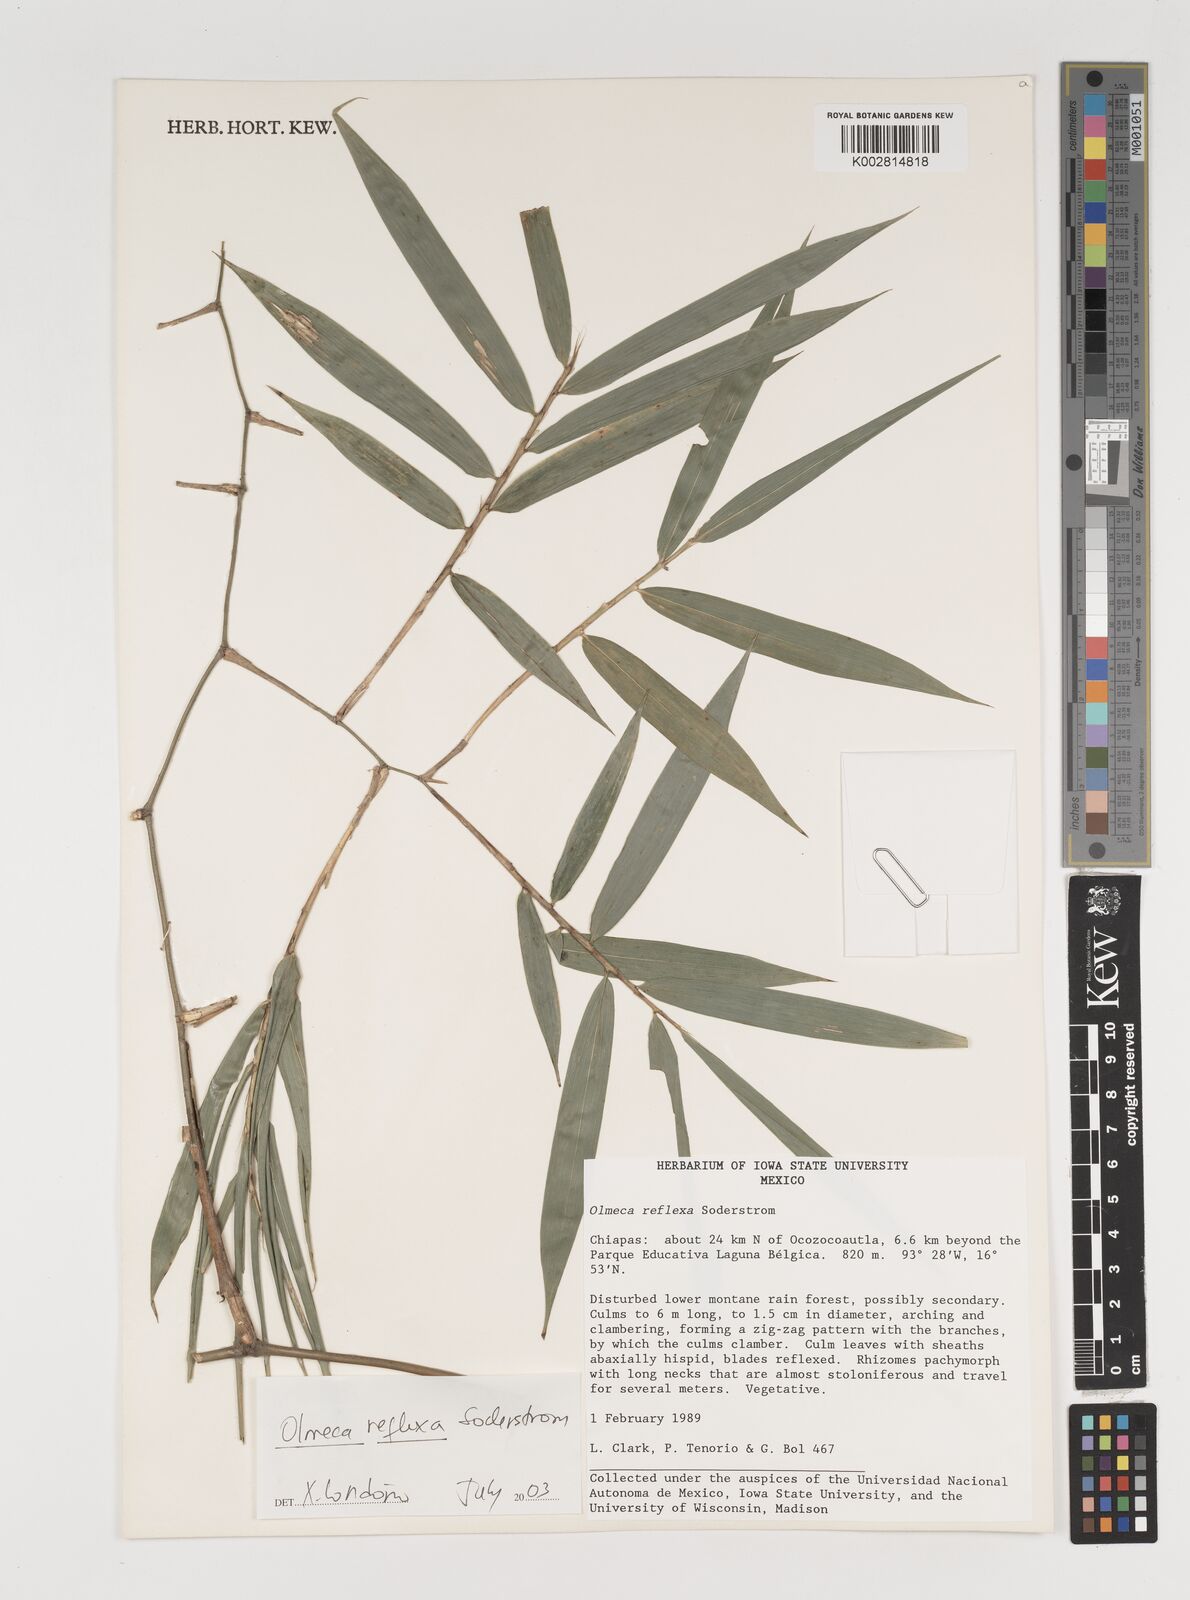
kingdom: Plantae
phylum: Tracheophyta
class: Liliopsida
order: Poales
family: Poaceae
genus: Olmeca
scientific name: Olmeca reflexa
